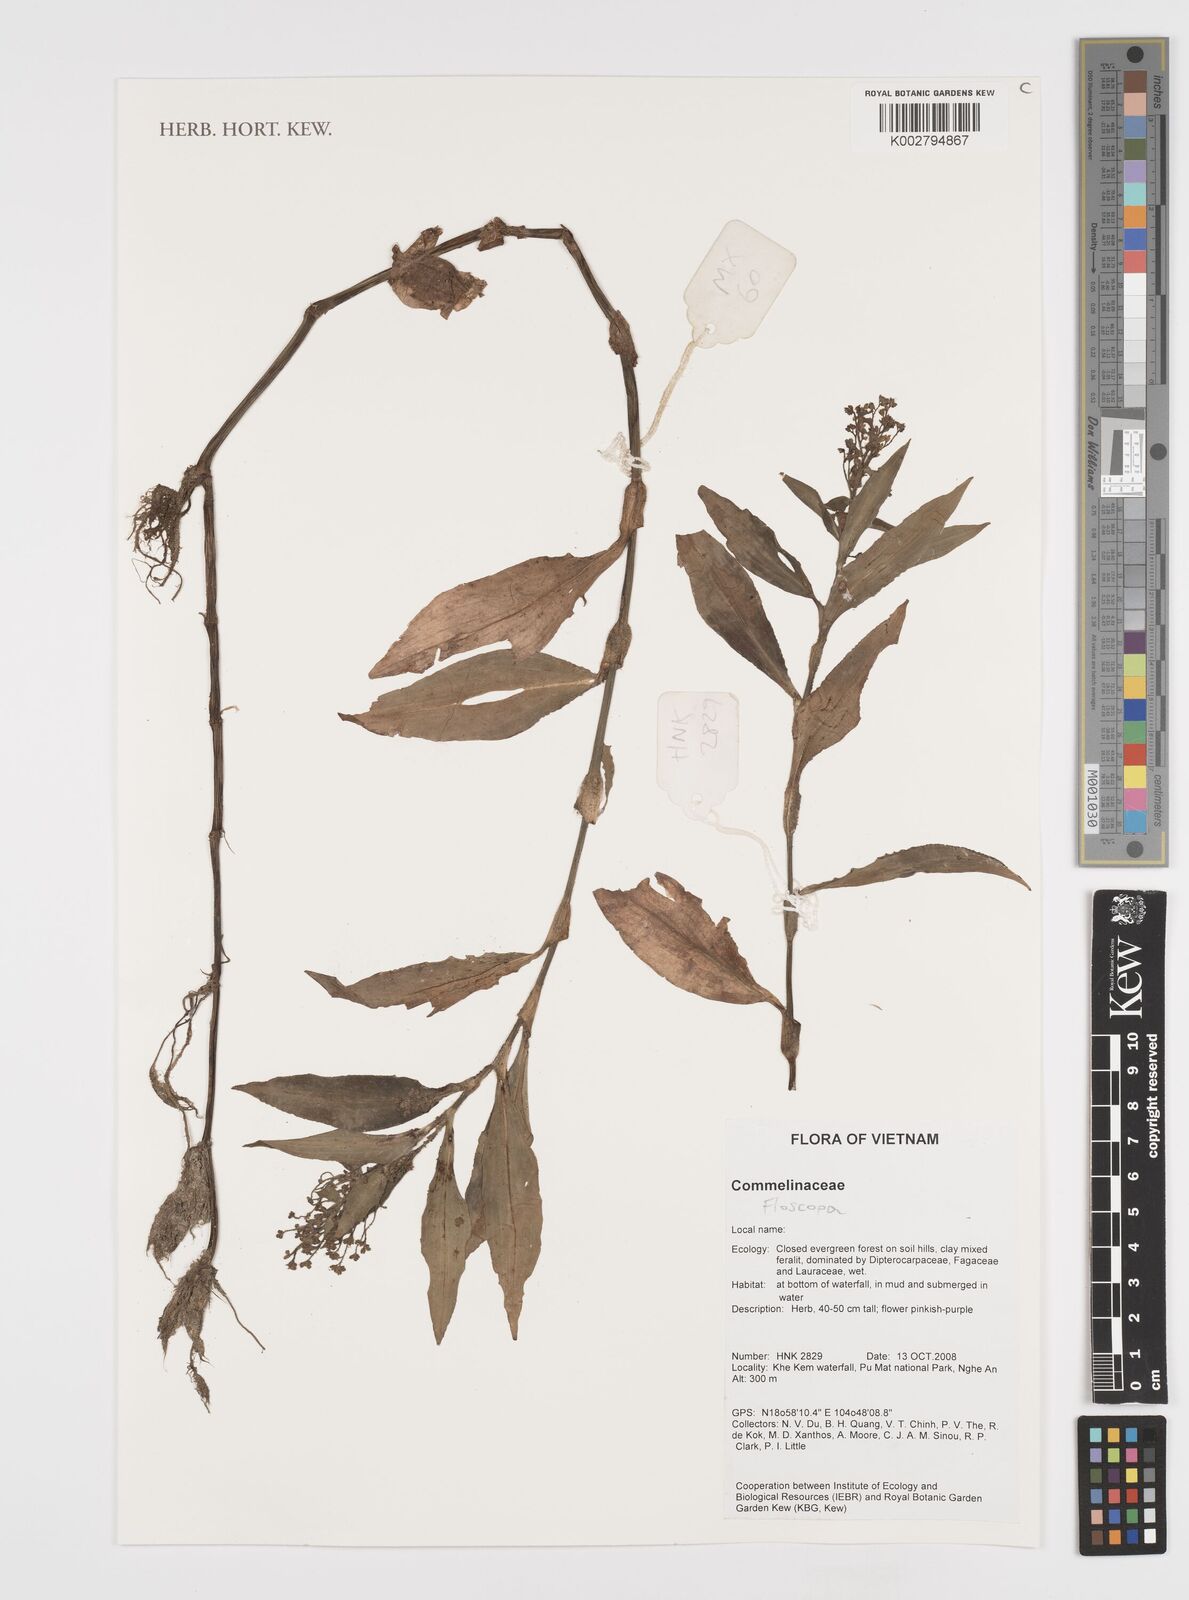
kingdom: Plantae
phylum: Tracheophyta
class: Liliopsida
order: Commelinales
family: Commelinaceae
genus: Floscopa
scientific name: Floscopa
